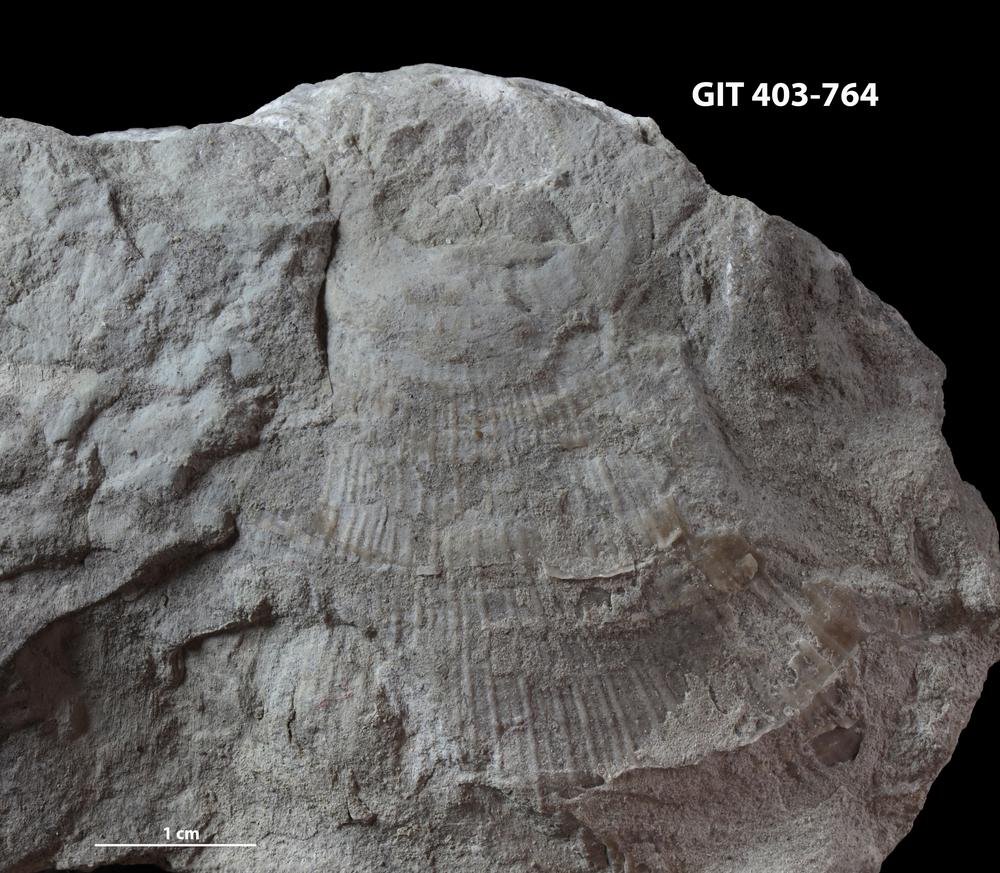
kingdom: Animalia
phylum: Brachiopoda
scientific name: Brachiopoda
